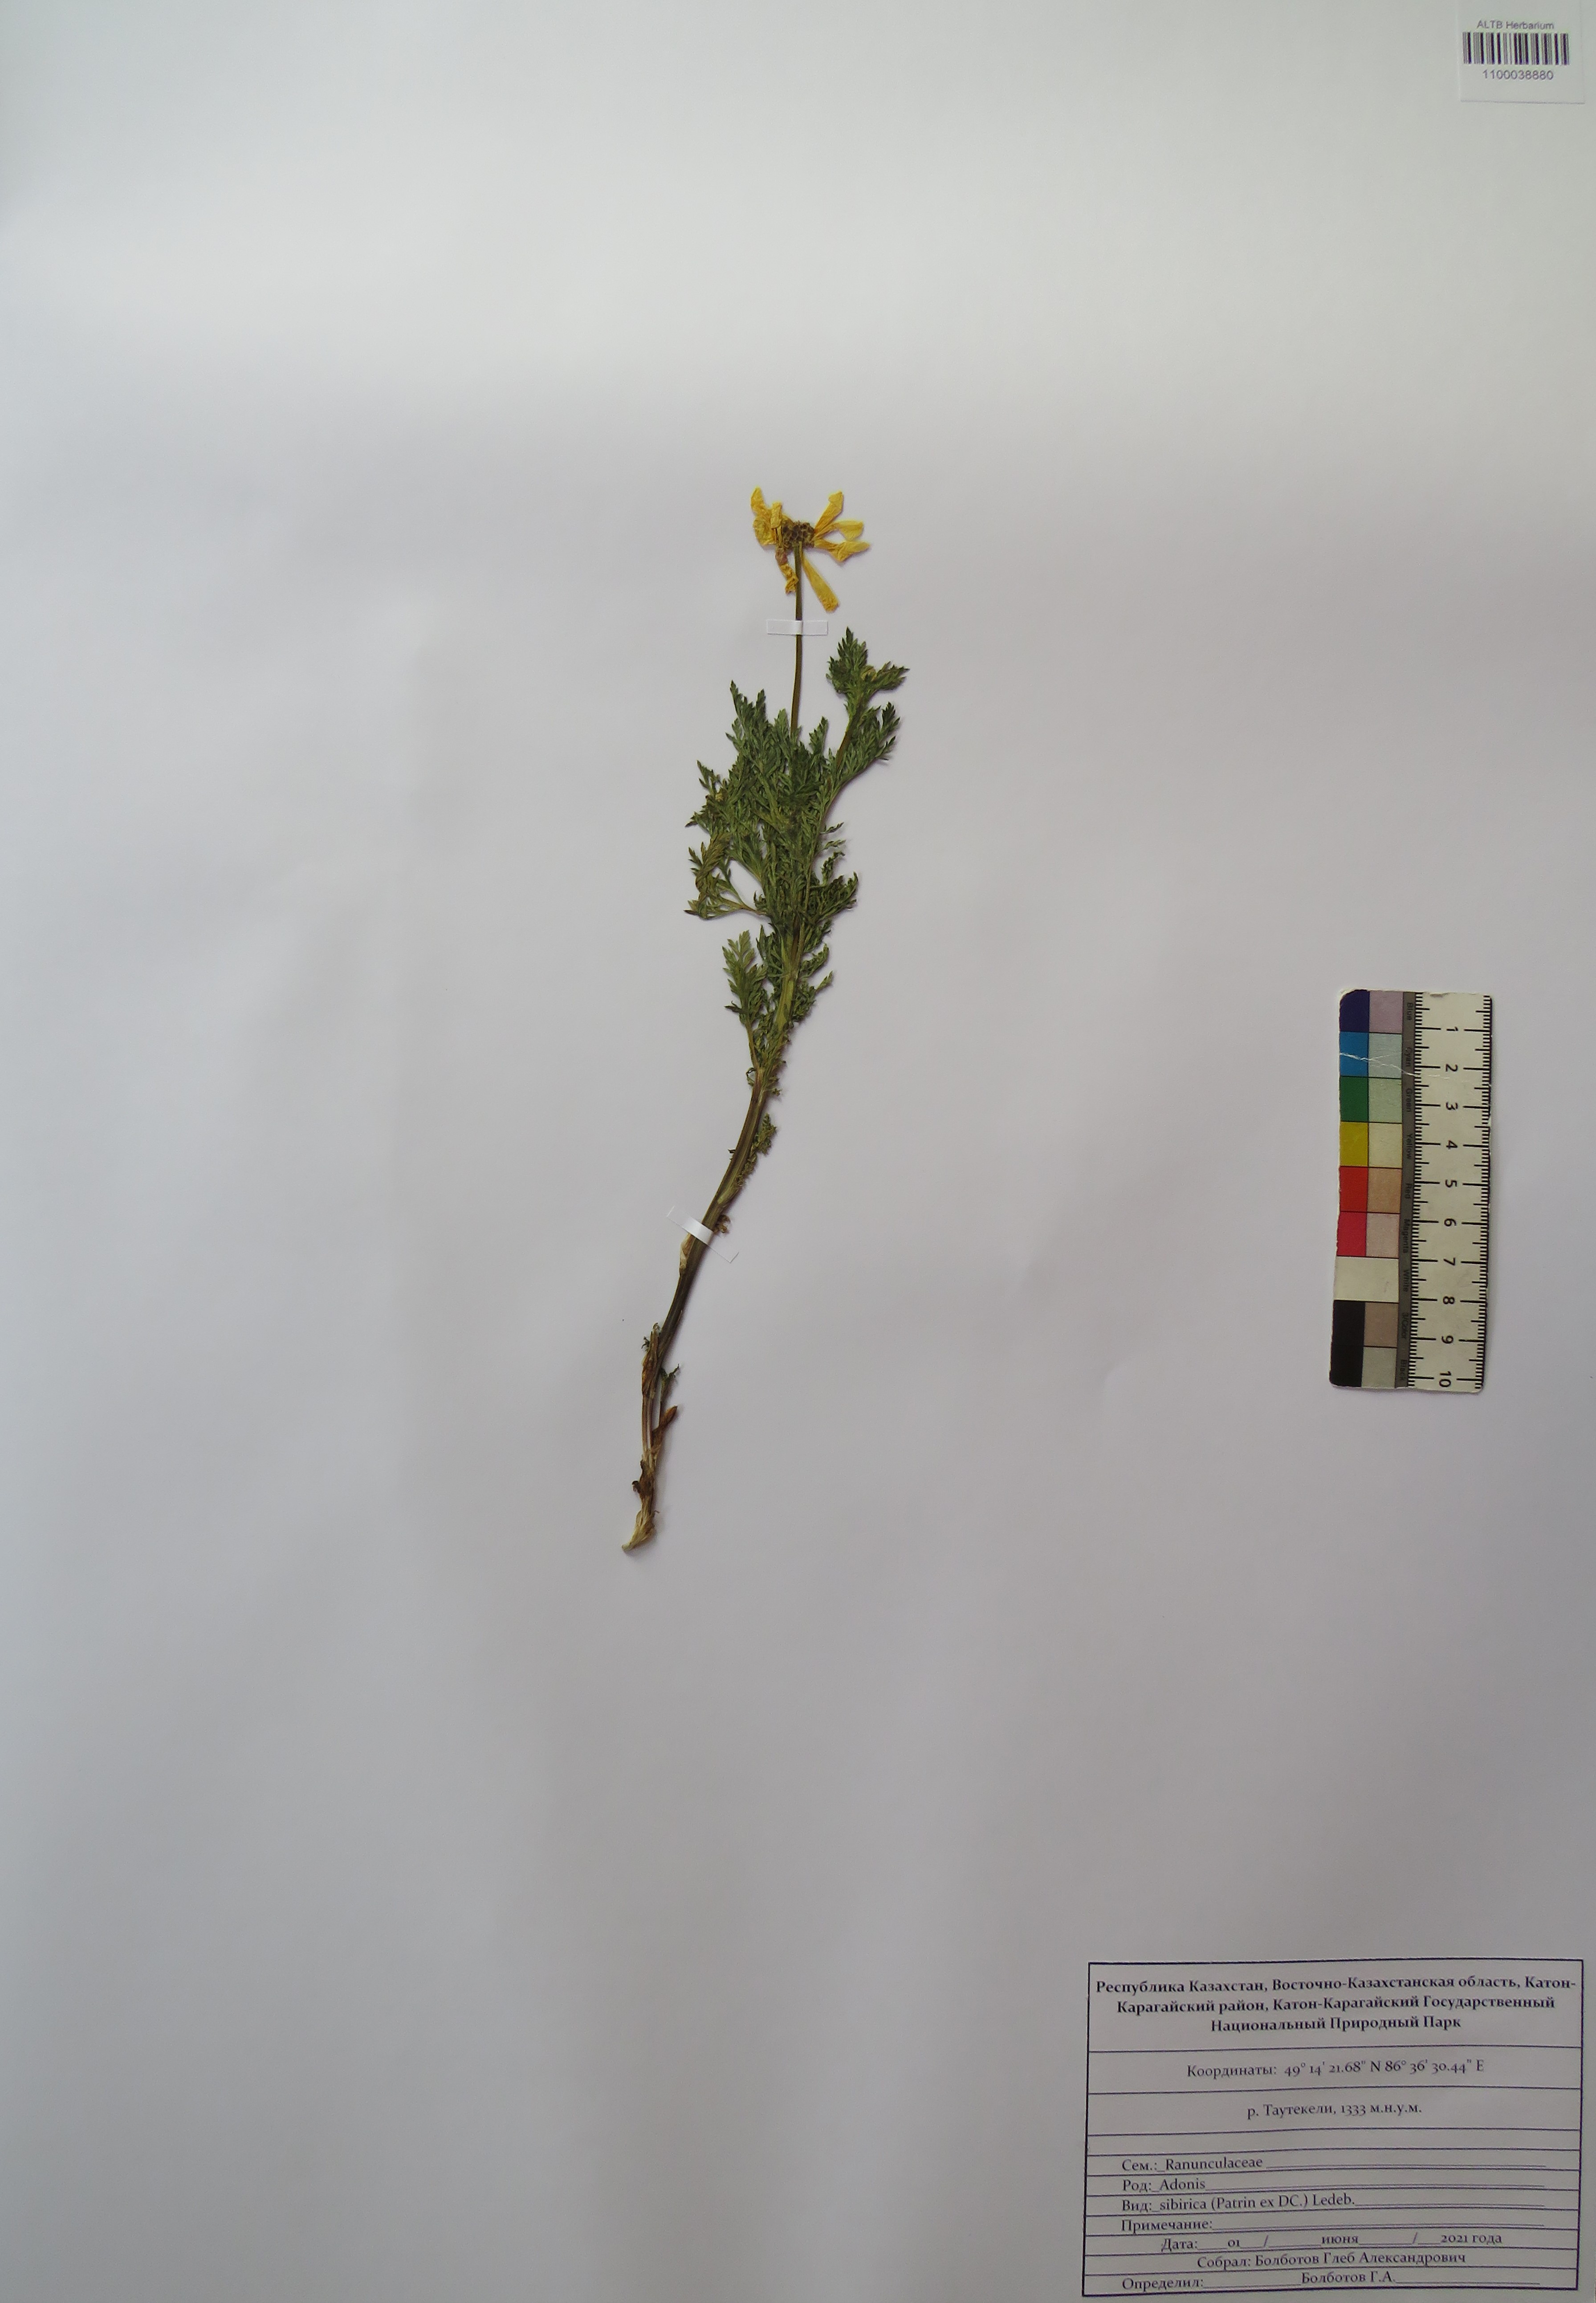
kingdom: Plantae
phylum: Tracheophyta
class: Magnoliopsida
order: Ranunculales
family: Ranunculaceae
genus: Adonis
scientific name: Adonis sibirica
